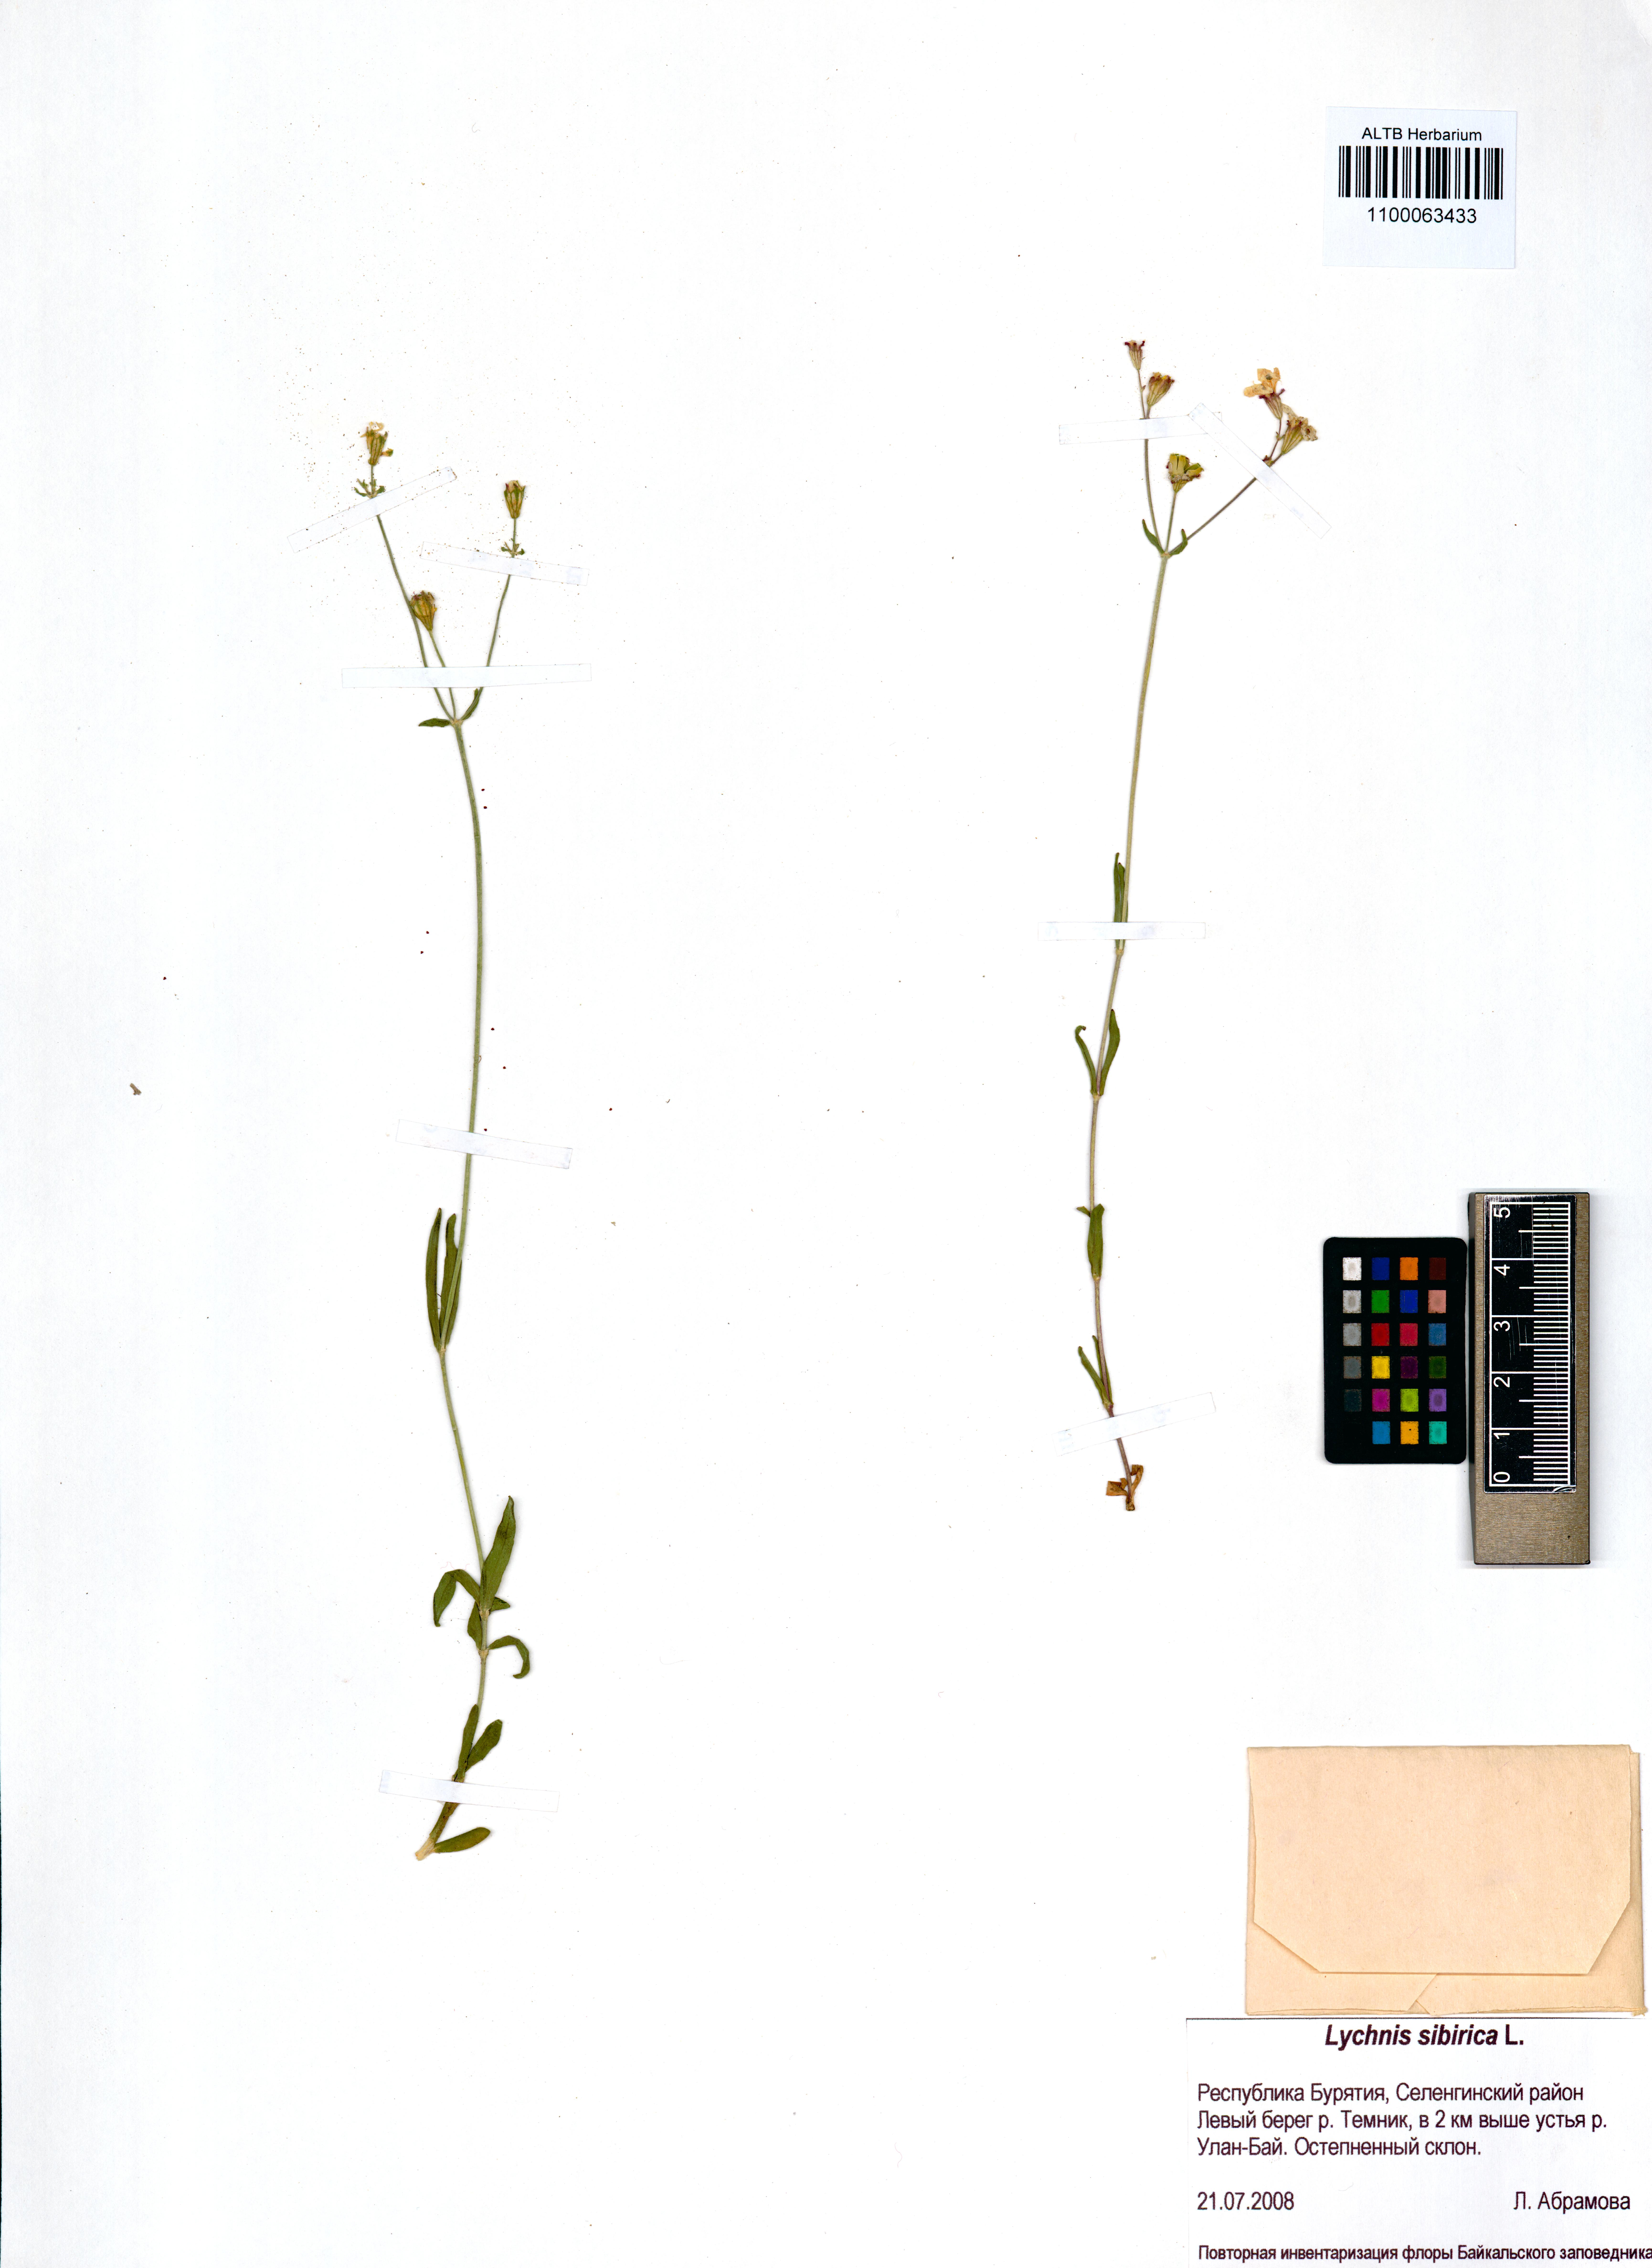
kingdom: Plantae
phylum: Tracheophyta
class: Magnoliopsida
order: Caryophyllales
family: Caryophyllaceae
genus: Silene
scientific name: Silene orientalimongolica
